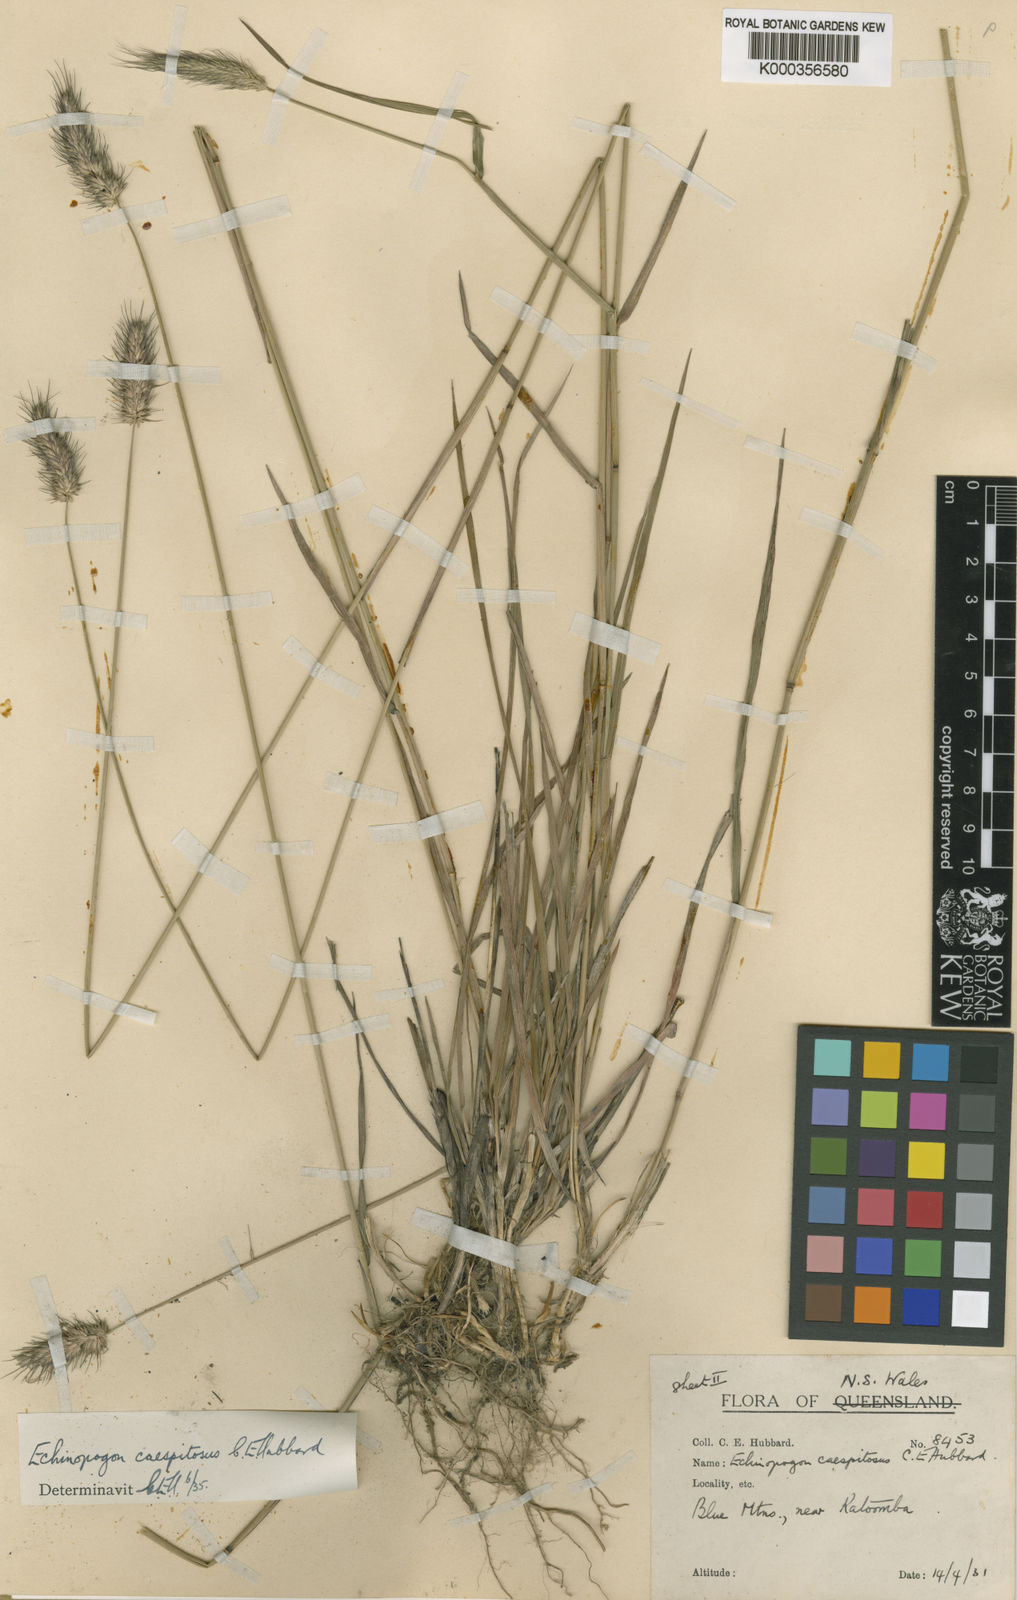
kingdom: Plantae
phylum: Tracheophyta
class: Liliopsida
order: Poales
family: Poaceae
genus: Echinopogon
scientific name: Echinopogon caespitosus
